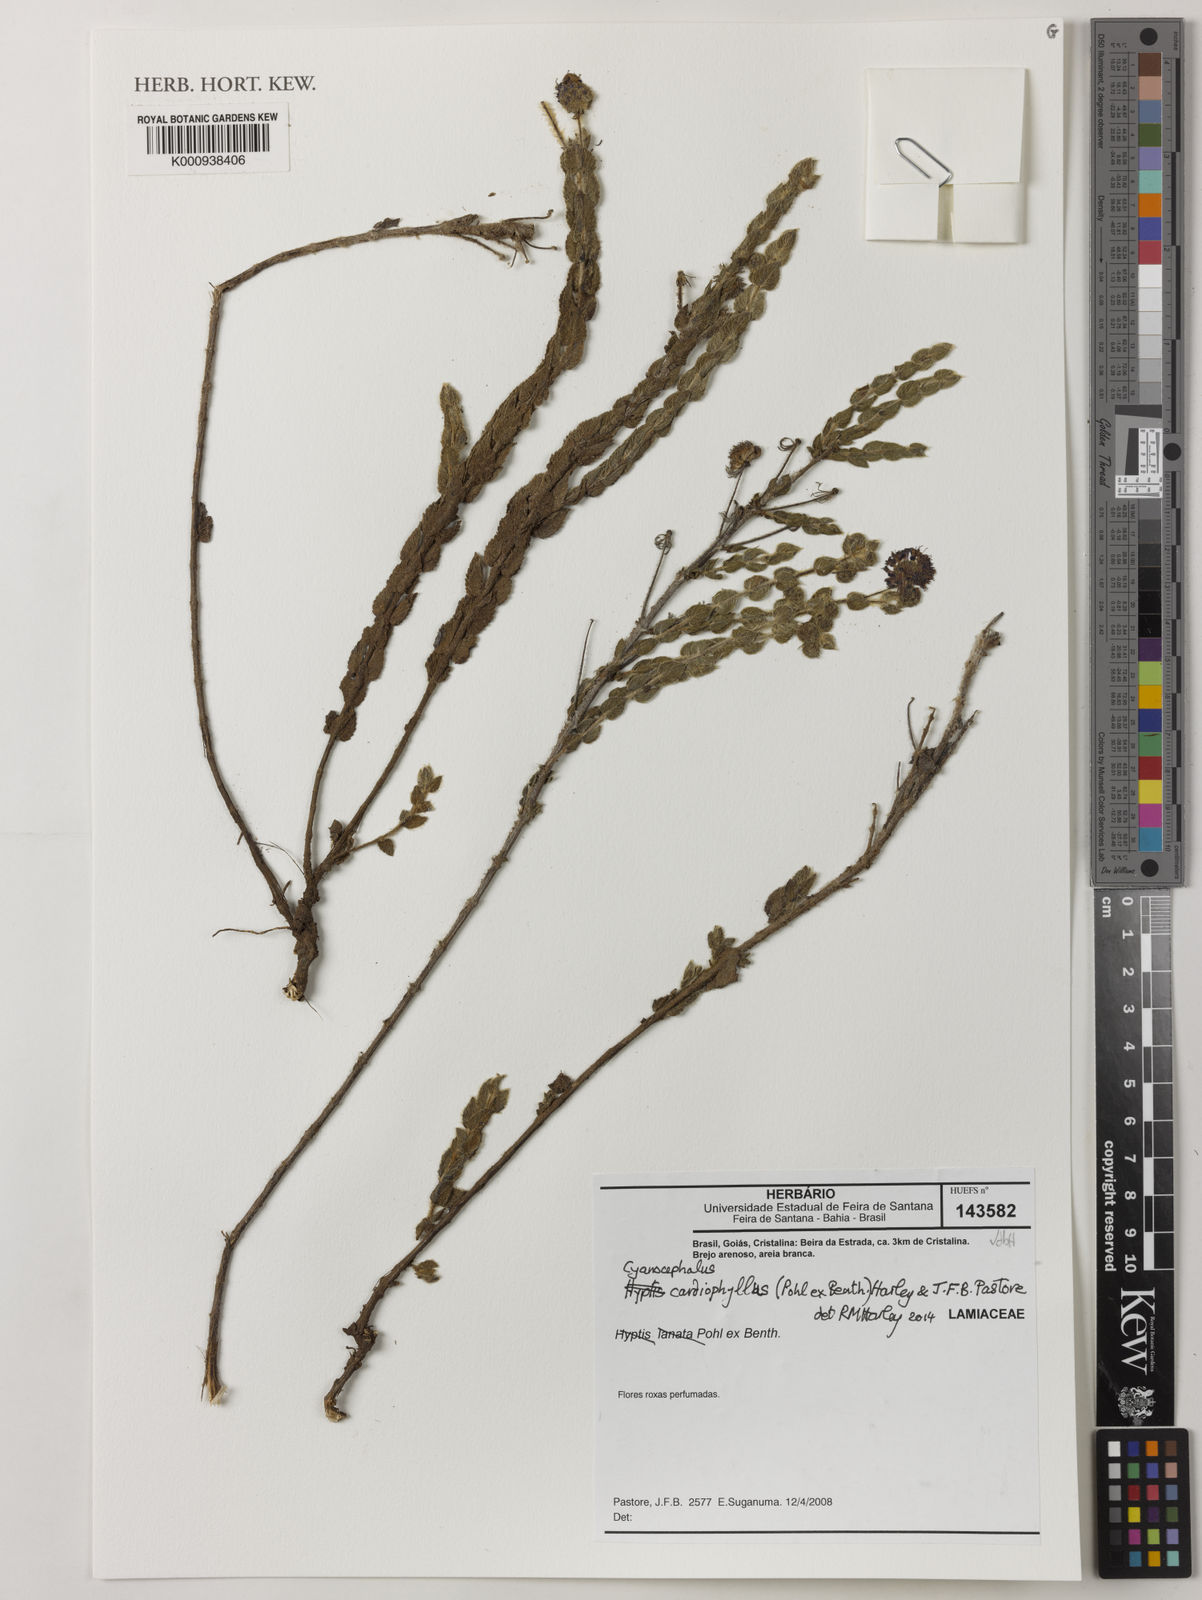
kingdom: Plantae
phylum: Tracheophyta
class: Magnoliopsida
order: Lamiales
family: Lamiaceae
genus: Cyanocephalus
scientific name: Cyanocephalus cardiophyllus
